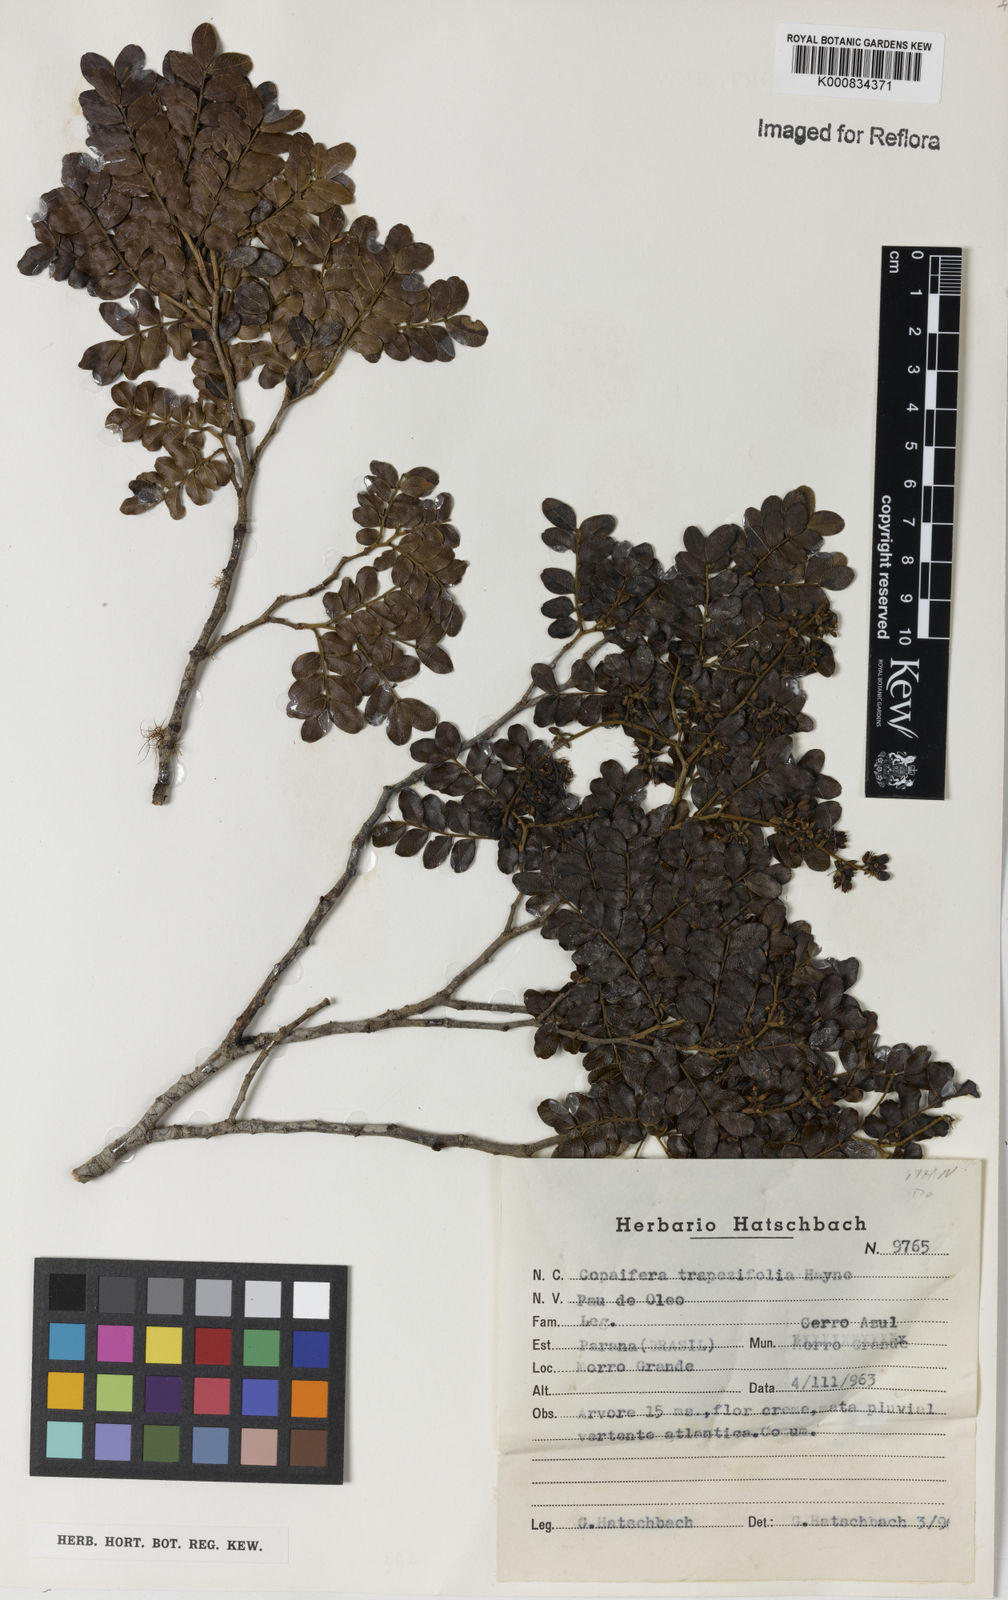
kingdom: Plantae
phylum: Tracheophyta
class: Magnoliopsida
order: Fabales
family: Fabaceae
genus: Copaifera
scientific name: Copaifera trapezifolia
